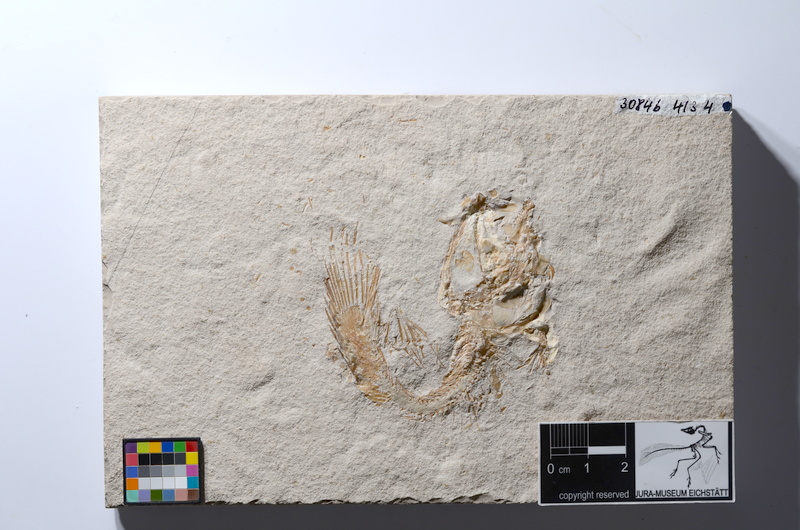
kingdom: Animalia
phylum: Chordata
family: Macrosemiidae
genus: Macrosemius
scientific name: Macrosemius rostratus
